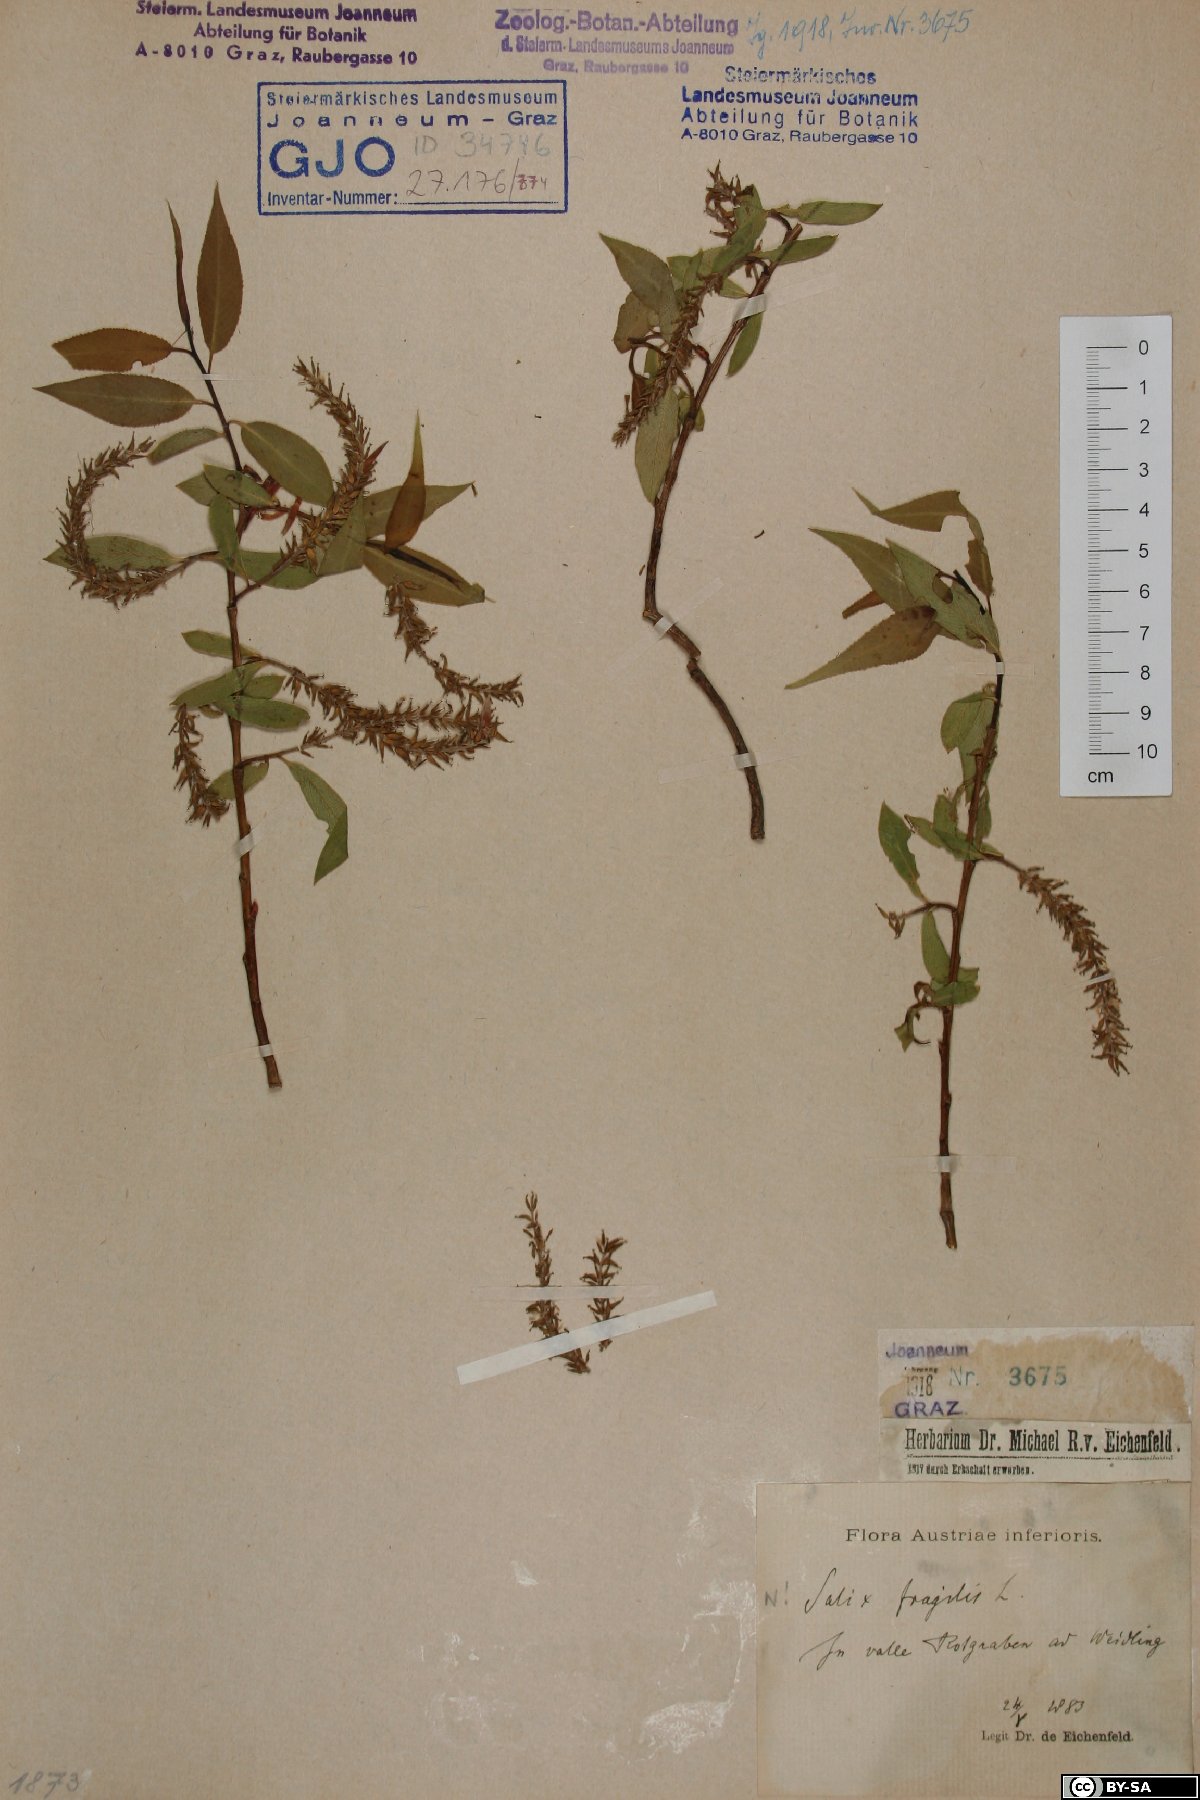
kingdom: Plantae
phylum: Tracheophyta
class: Magnoliopsida
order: Malpighiales
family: Salicaceae
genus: Salix
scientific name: Salix fragilis
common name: Crack willow
